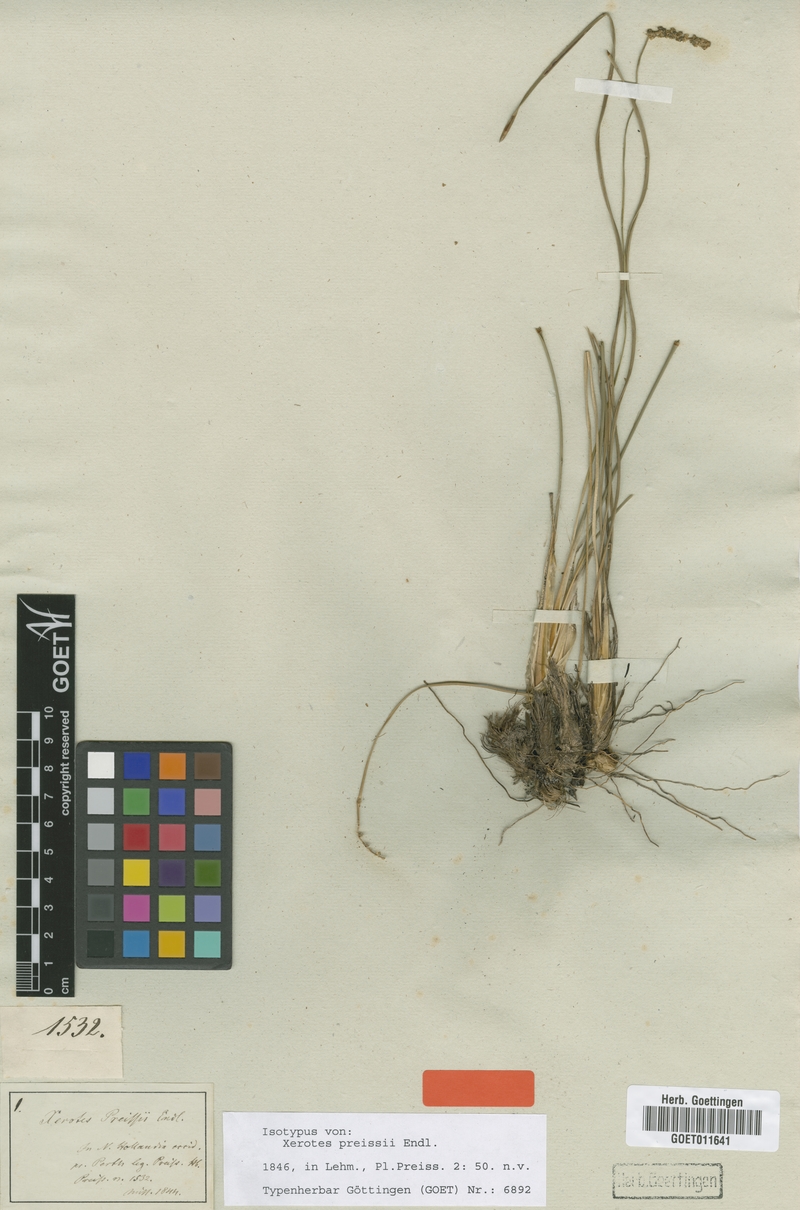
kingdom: Plantae
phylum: Tracheophyta
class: Liliopsida
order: Asparagales
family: Asparagaceae
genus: Lomandra
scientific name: Lomandra preissii
